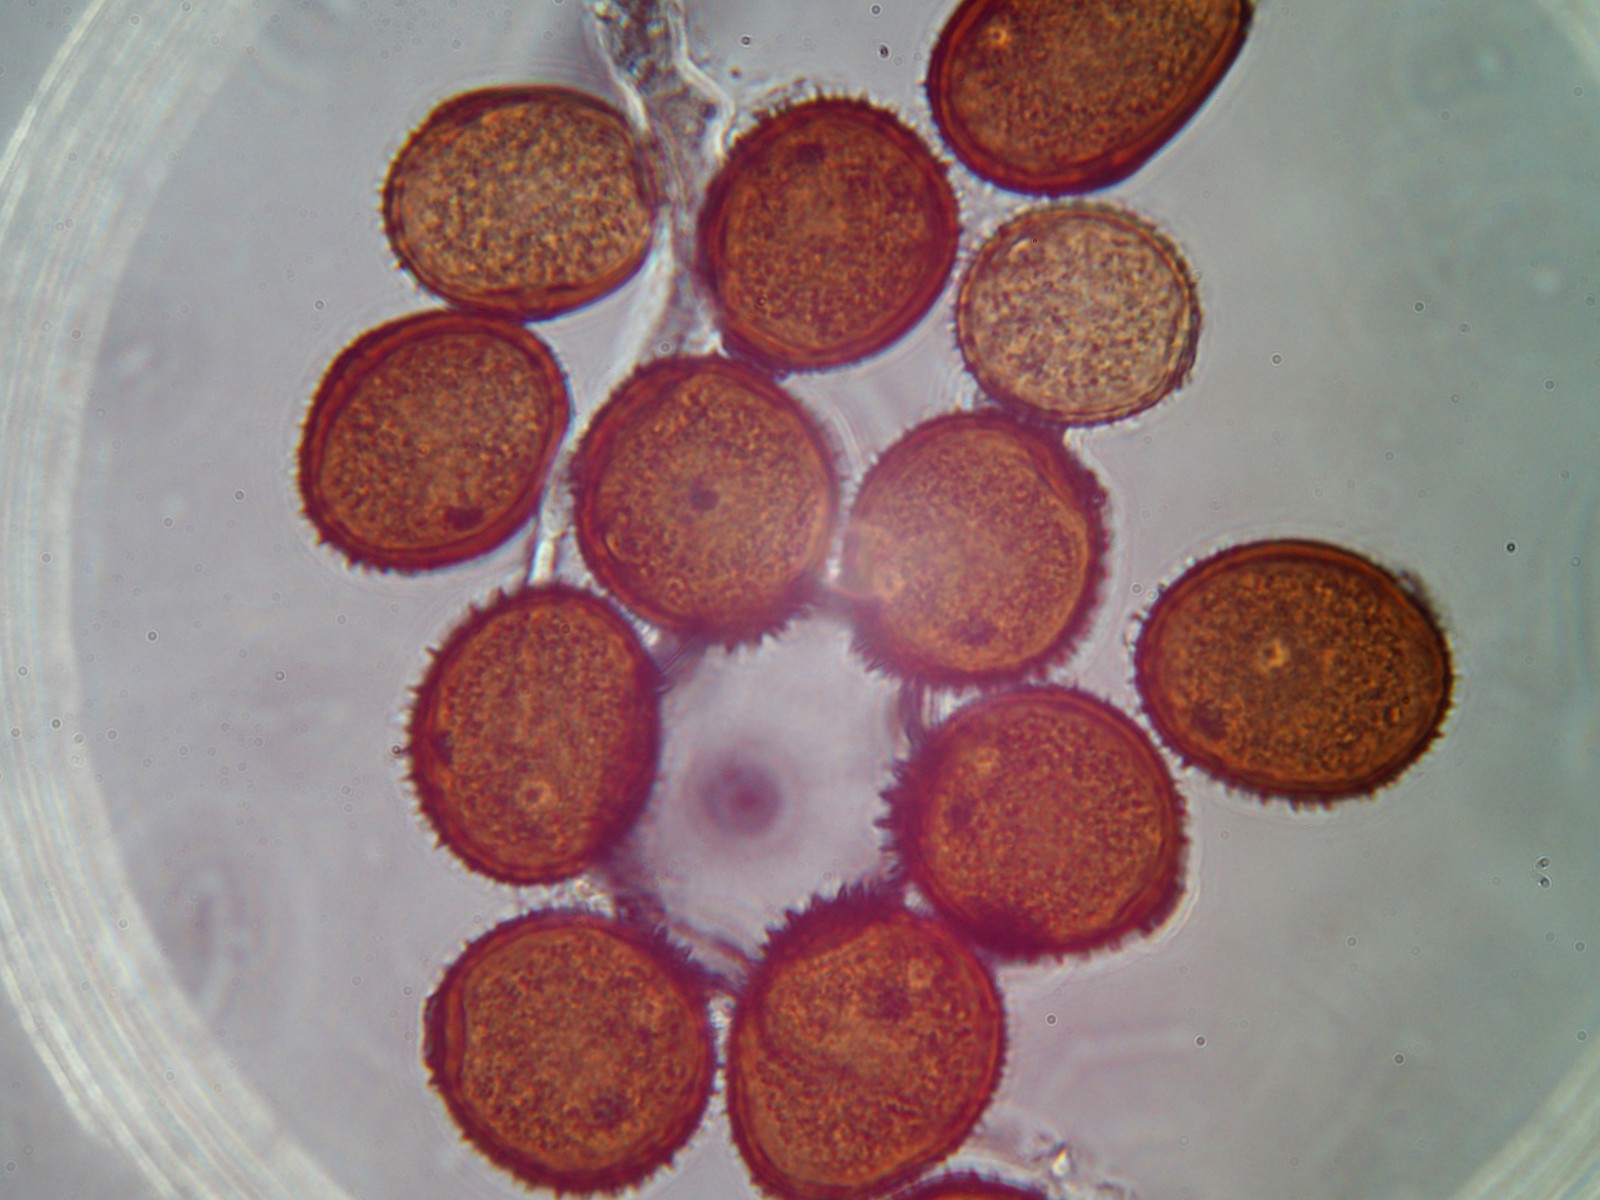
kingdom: Fungi
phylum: Basidiomycota
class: Pucciniomycetes
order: Pucciniales
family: Pucciniaceae
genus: Puccinia
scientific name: Puccinia distincta
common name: Daisy rust
